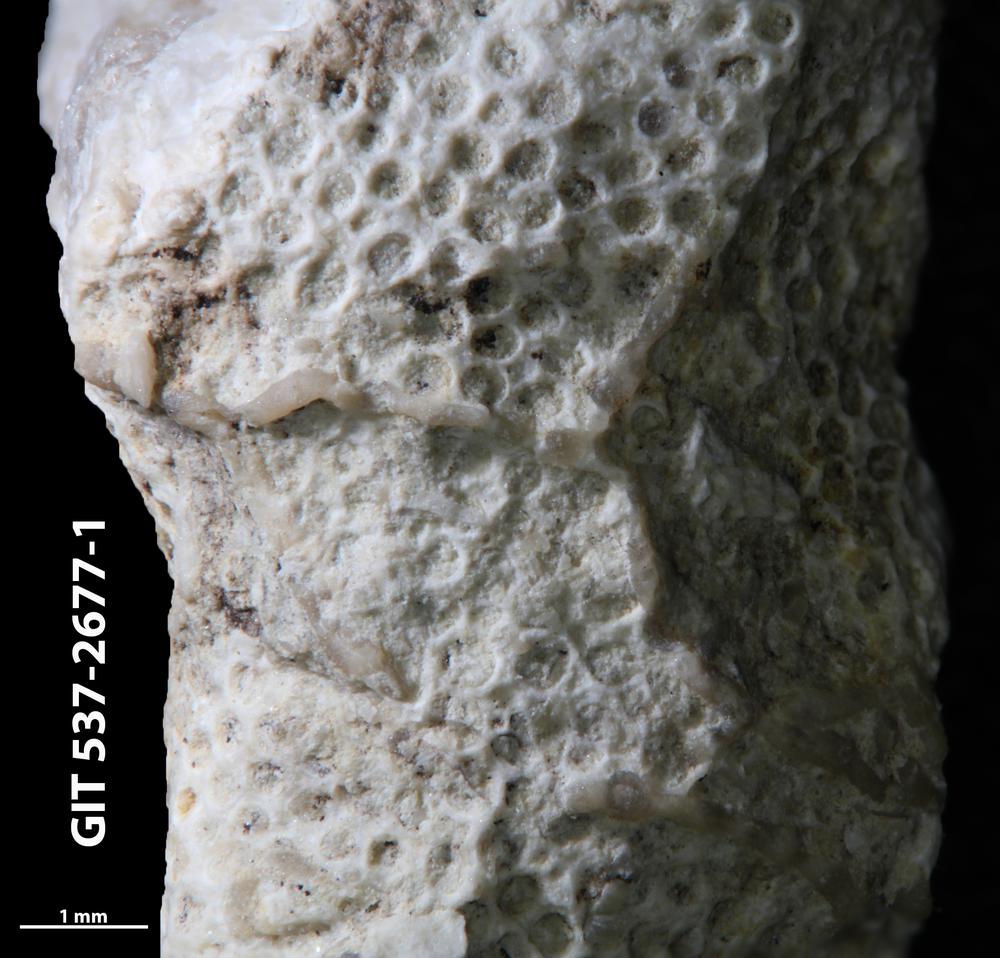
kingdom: Animalia
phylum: Bryozoa
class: Stenolaemata
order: Cyclostomatida
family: Corynotrypidae
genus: Corynotrypa
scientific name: Corynotrypa
